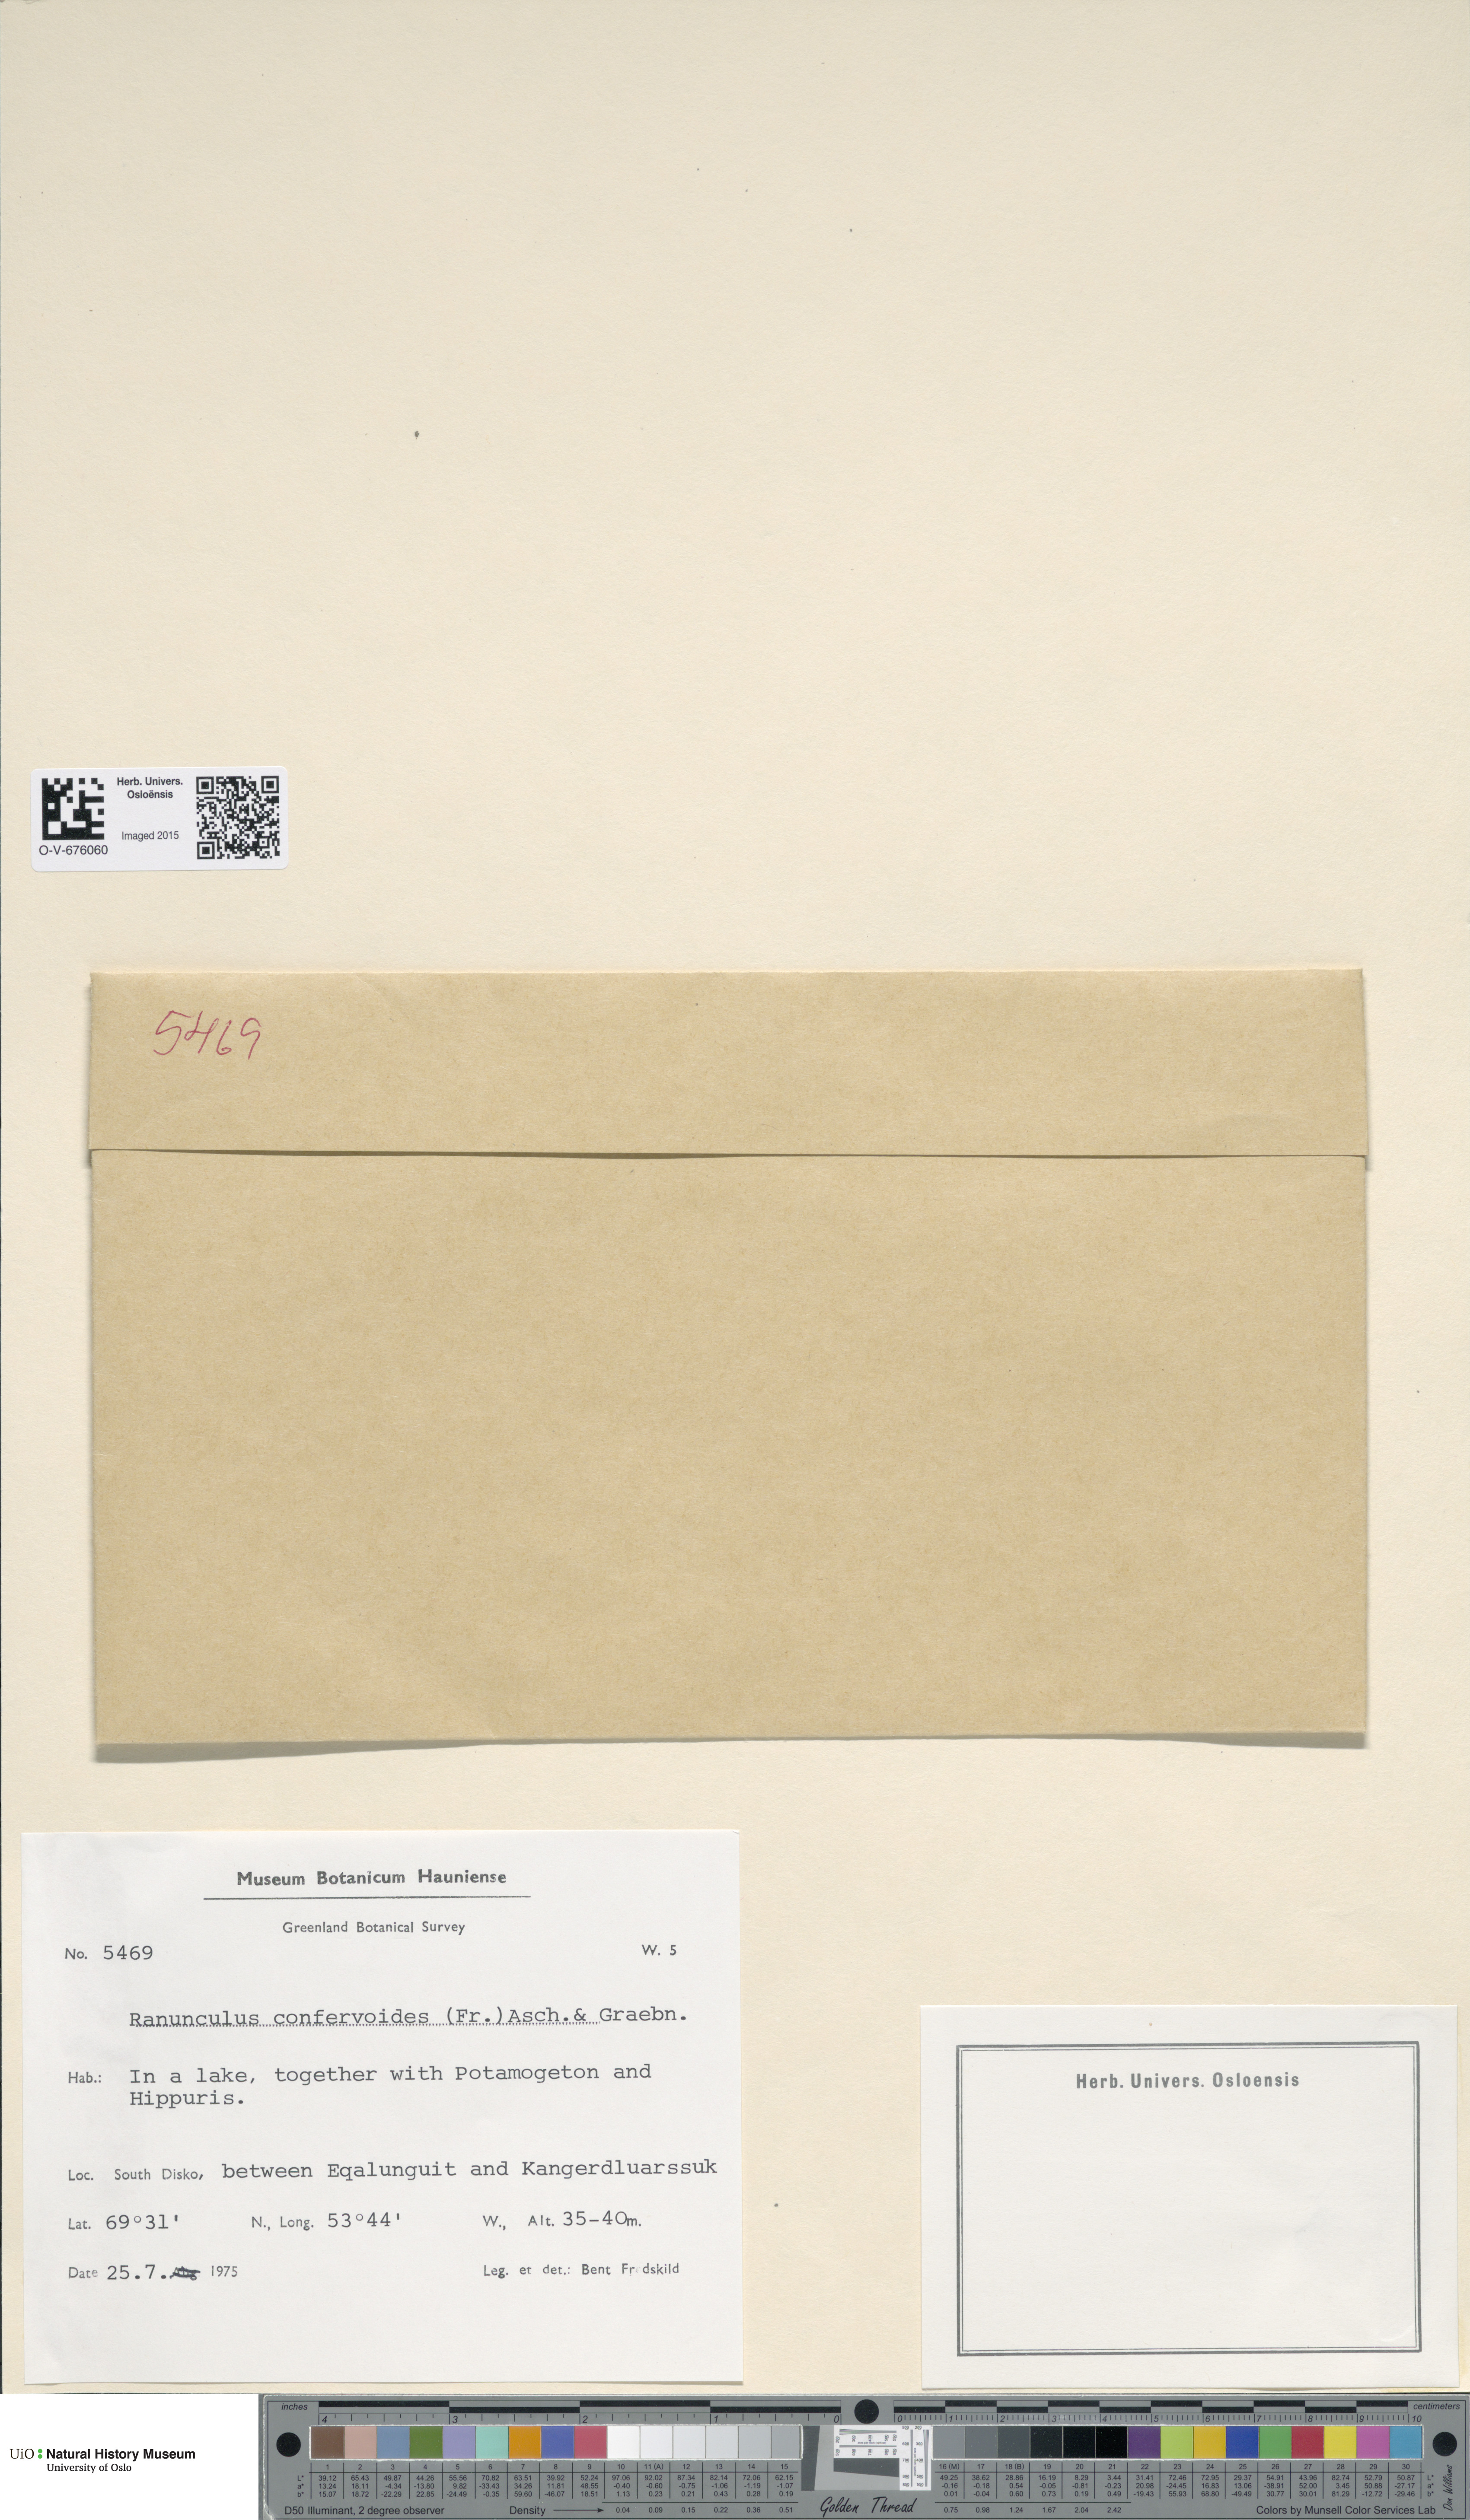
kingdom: Plantae
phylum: Tracheophyta
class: Magnoliopsida
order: Ranunculales
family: Ranunculaceae
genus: Ranunculus
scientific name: Ranunculus confervoides
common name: Delicate buttercup
